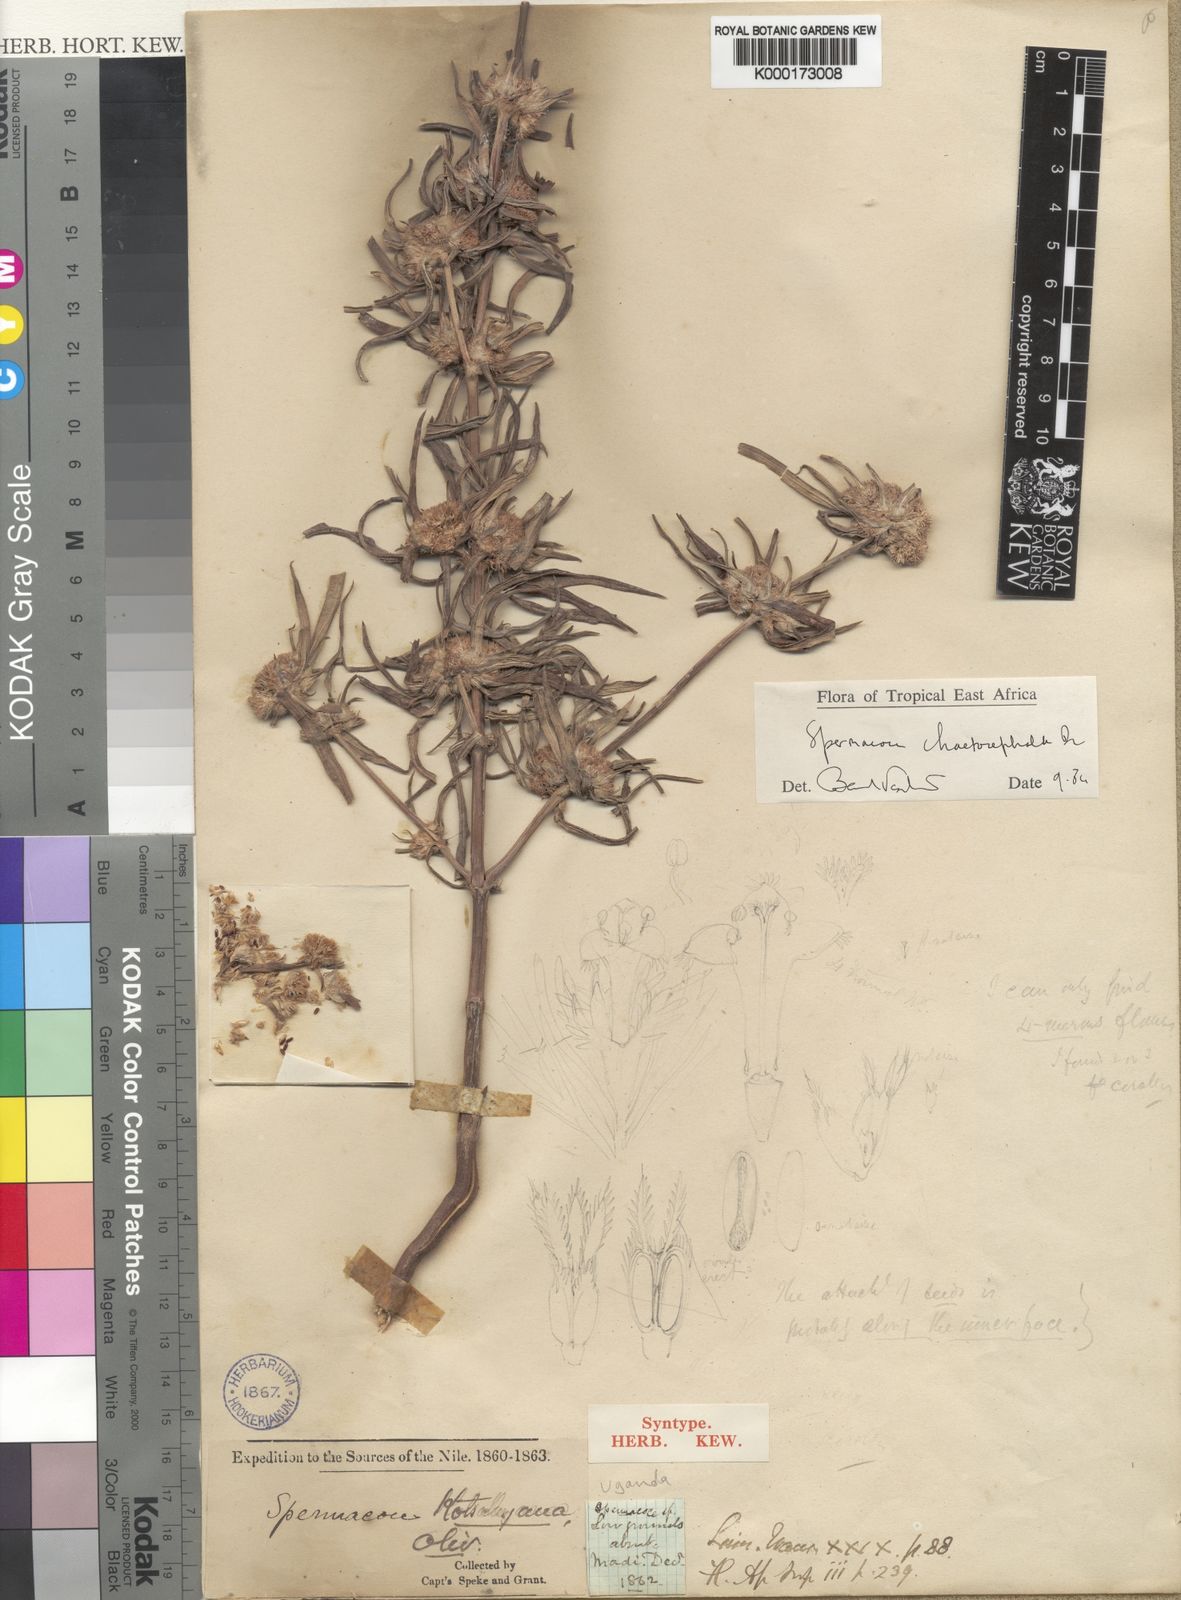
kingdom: Plantae
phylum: Tracheophyta
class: Magnoliopsida
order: Gentianales
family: Rubiaceae
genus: Spermacoce
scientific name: Spermacoce chaetocephala
